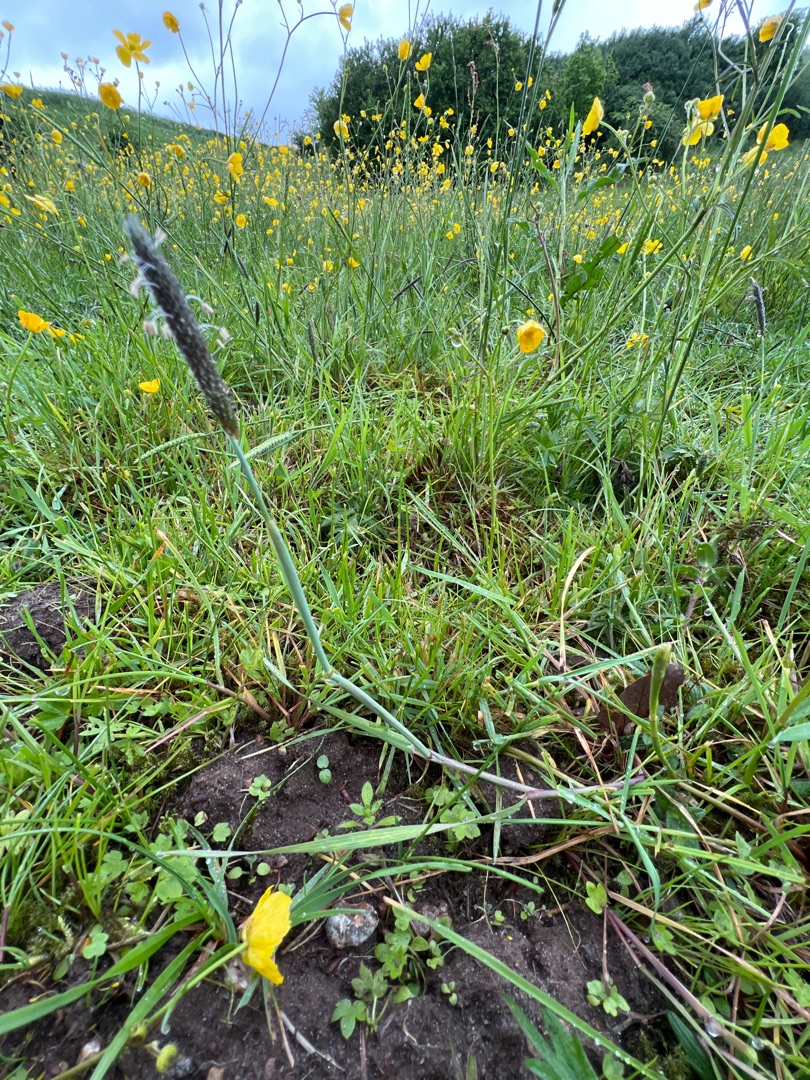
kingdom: Plantae
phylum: Tracheophyta
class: Liliopsida
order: Poales
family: Poaceae
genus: Alopecurus
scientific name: Alopecurus geniculatus
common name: Knæbøjet rævehale
